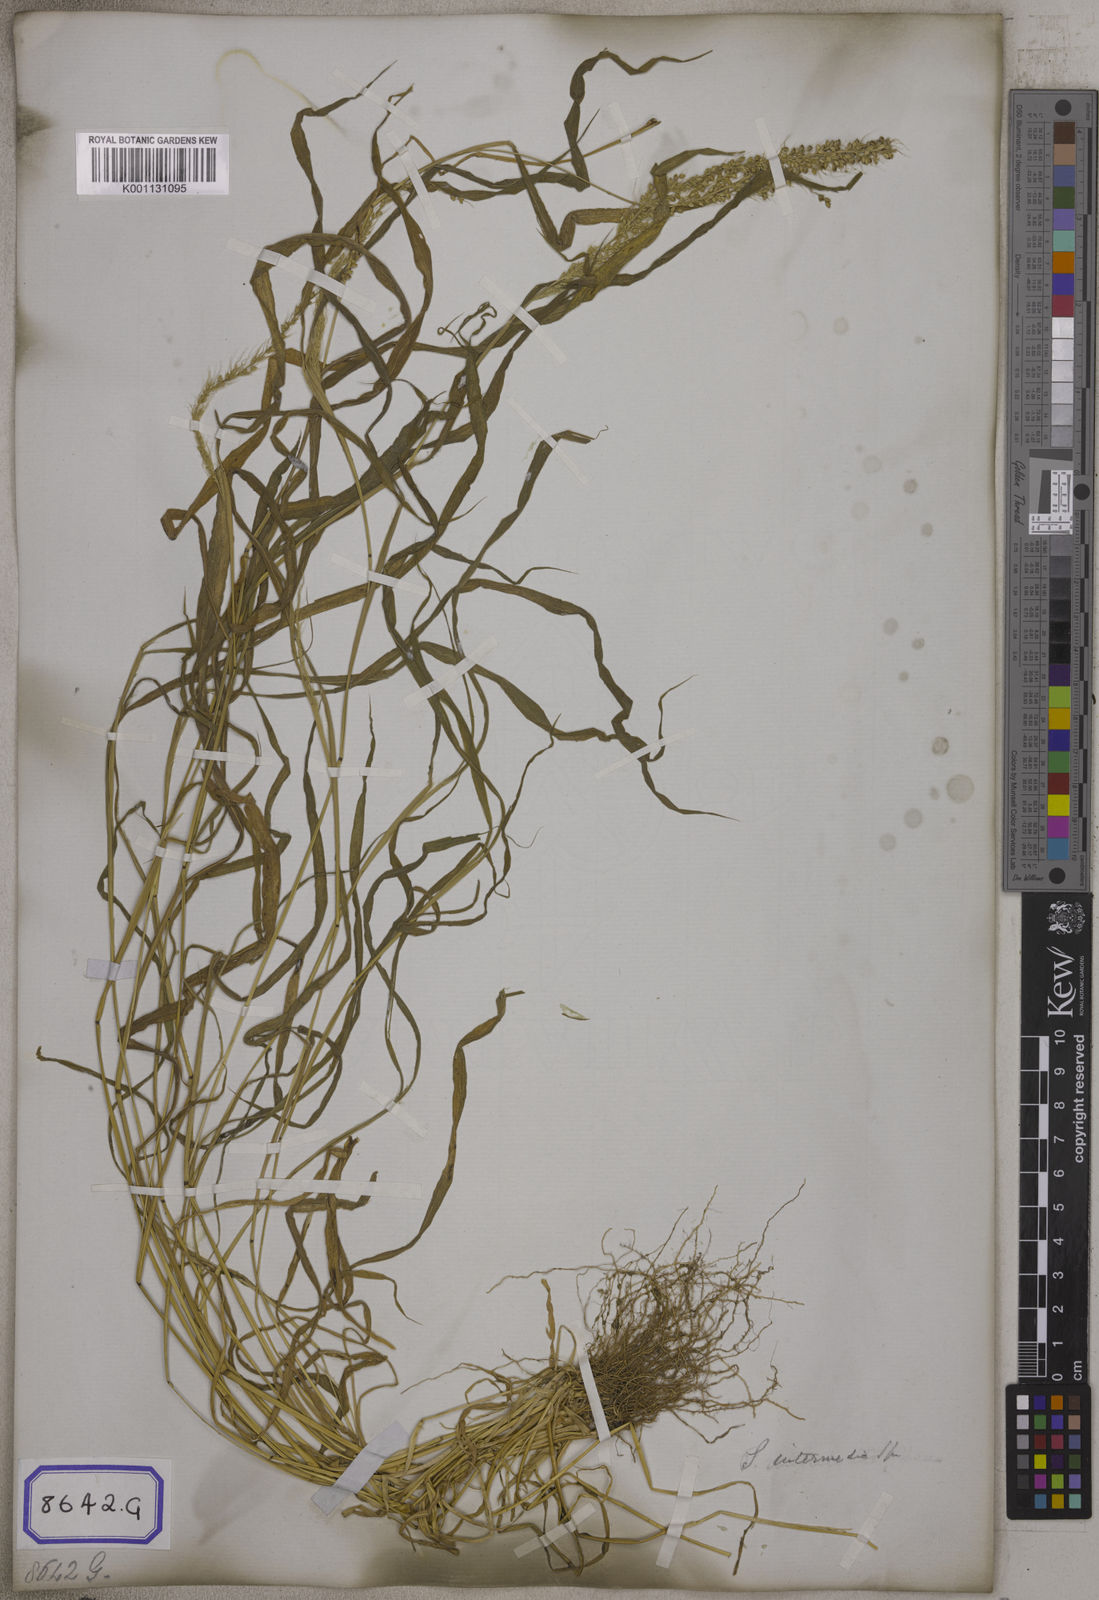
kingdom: Plantae
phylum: Tracheophyta
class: Liliopsida
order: Poales
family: Poaceae
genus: Setaria
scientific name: Setaria verticillata
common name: Hooked bristlegrass
